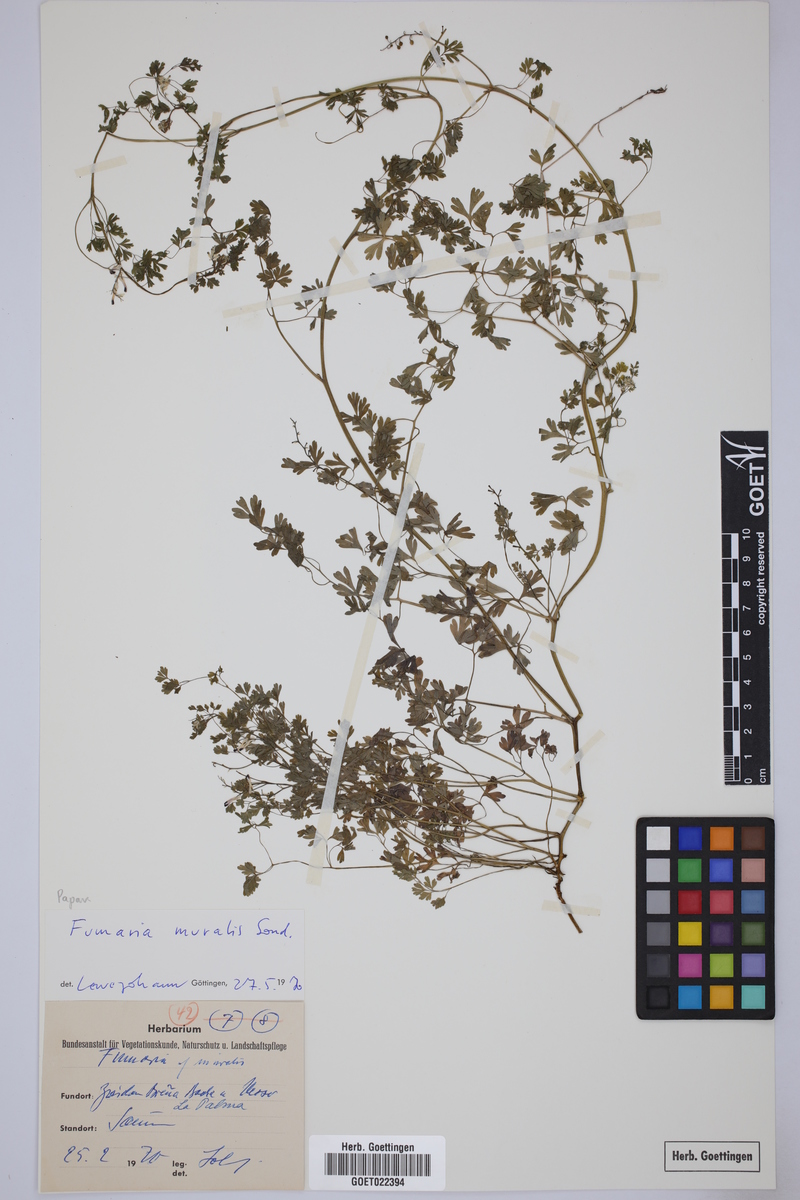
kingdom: Plantae
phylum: Tracheophyta
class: Magnoliopsida
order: Ranunculales
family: Papaveraceae
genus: Fumaria
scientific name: Fumaria muralis
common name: Common ramping-fumitory
